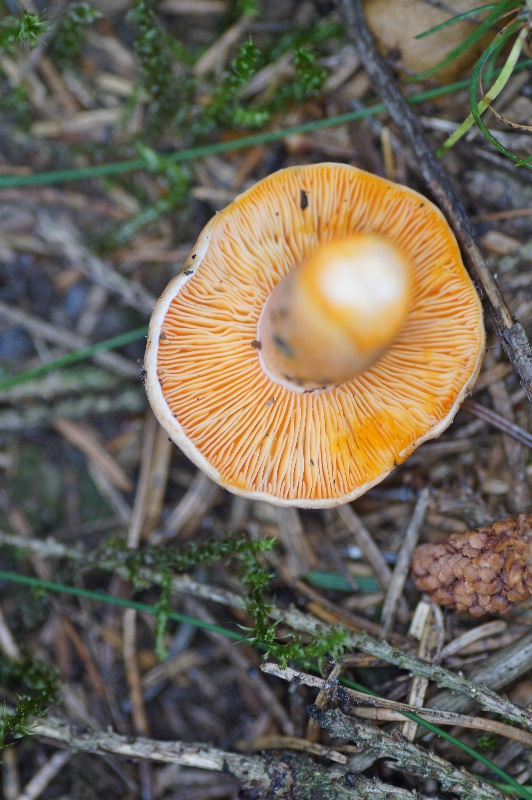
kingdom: Fungi
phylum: Basidiomycota
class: Agaricomycetes
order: Russulales
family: Russulaceae
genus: Lactarius
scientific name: Lactarius deterrimus
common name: gran-mælkehat
